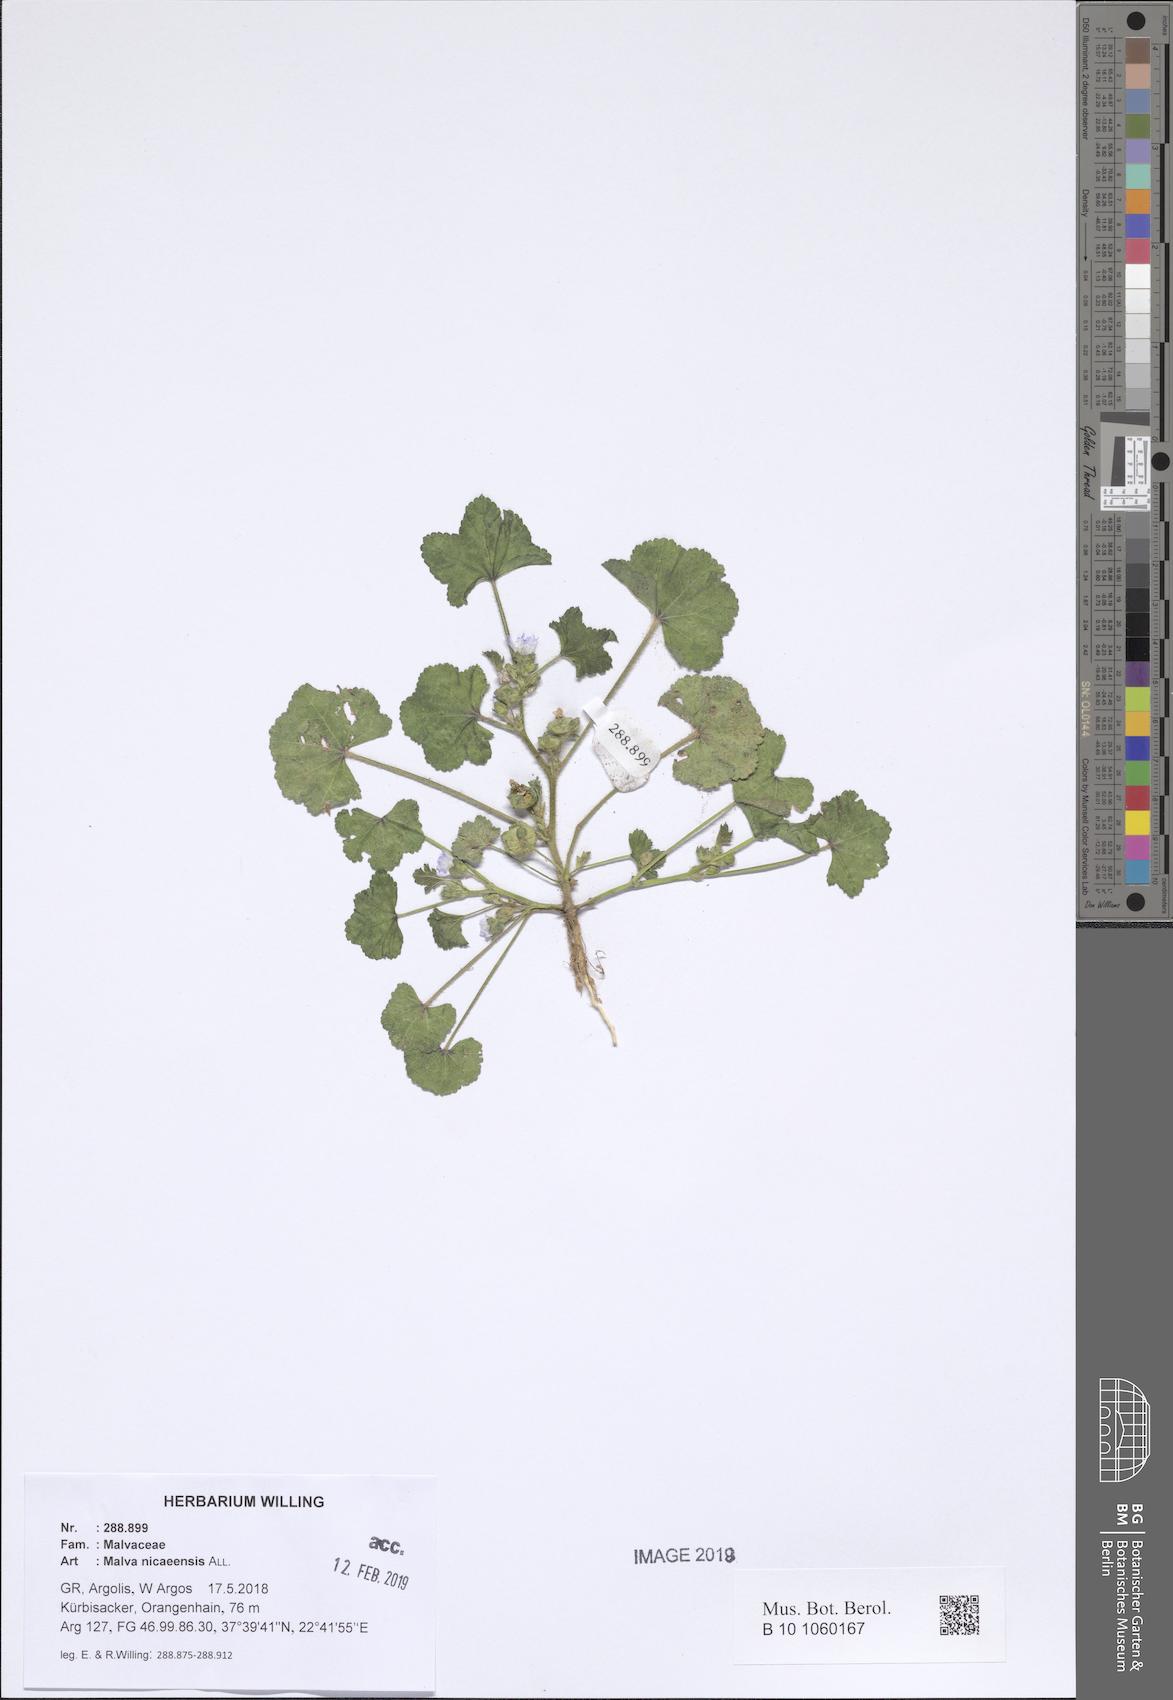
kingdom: Plantae
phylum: Tracheophyta
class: Magnoliopsida
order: Malvales
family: Malvaceae
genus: Malva
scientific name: Malva nicaeensis
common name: French mallow
